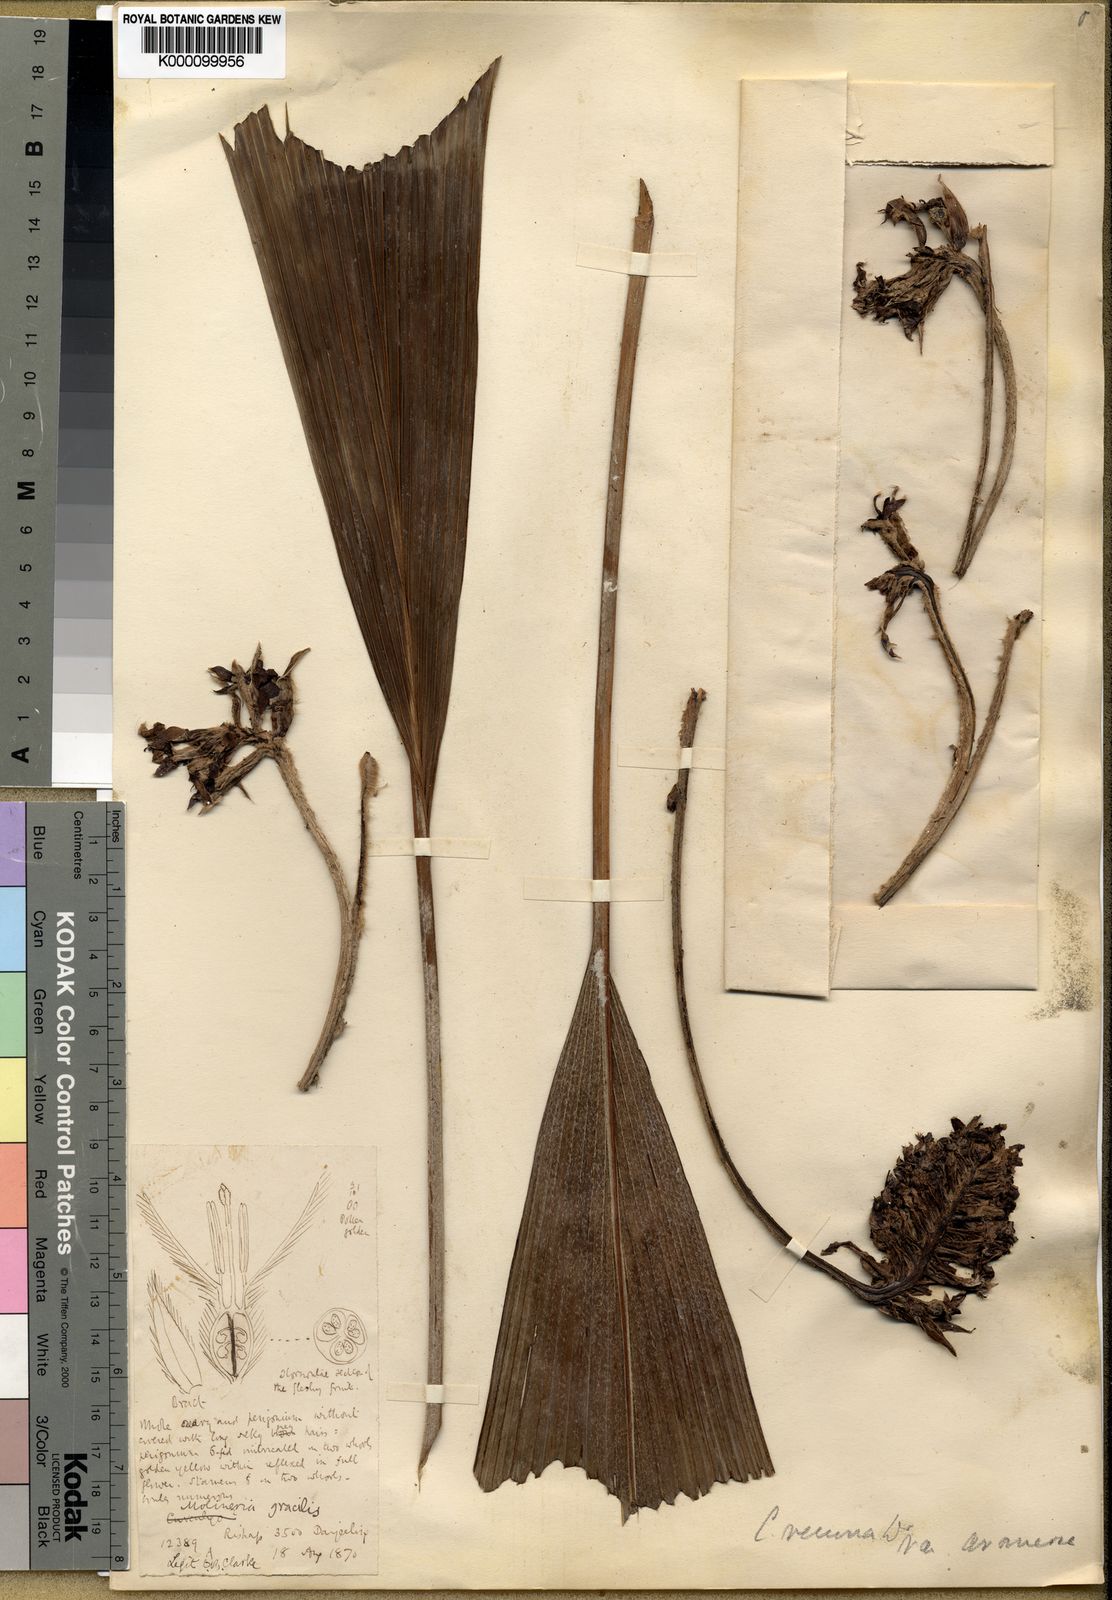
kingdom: Plantae
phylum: Tracheophyta
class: Liliopsida
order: Asparagales
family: Hypoxidaceae
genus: Curculigo
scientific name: Curculigo capitulata
